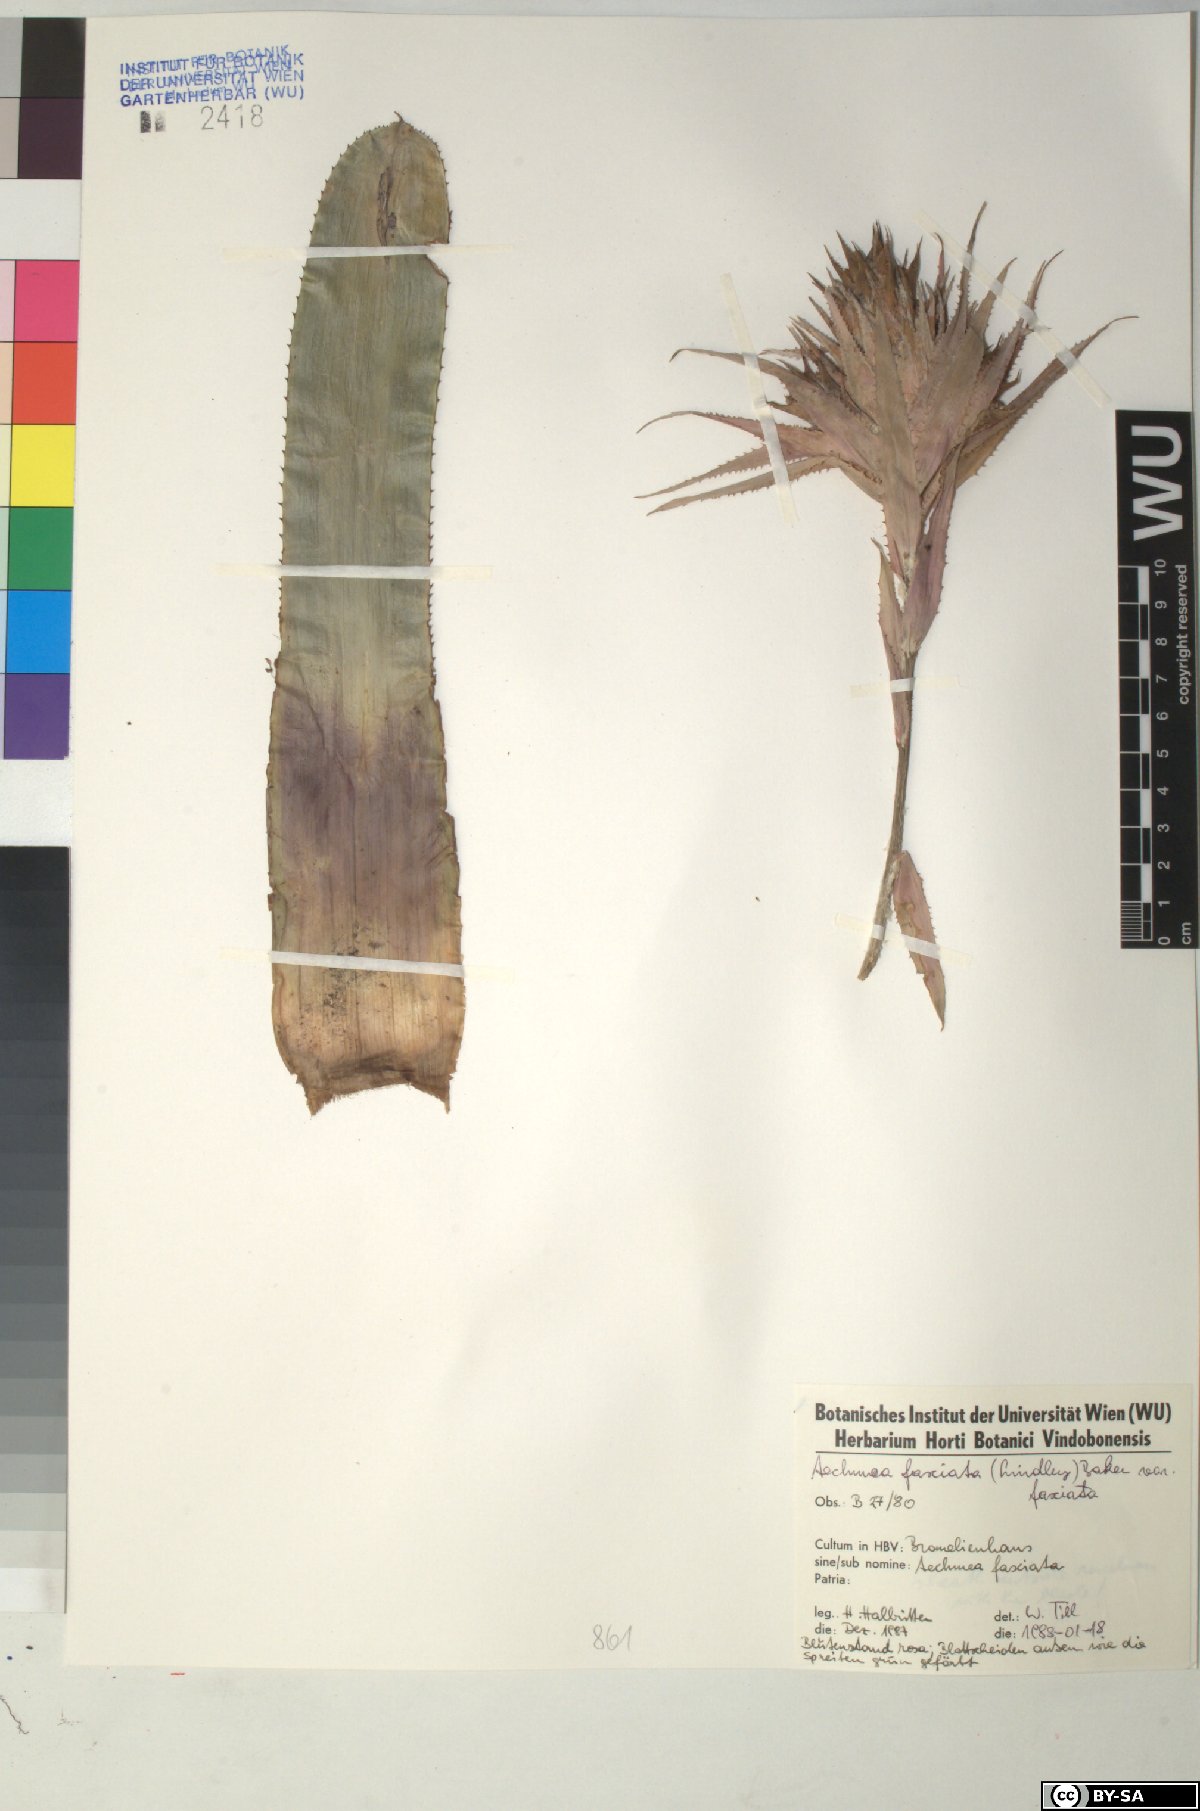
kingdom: Plantae
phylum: Tracheophyta
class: Liliopsida
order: Poales
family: Bromeliaceae
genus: Aechmea
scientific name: Aechmea fasciata
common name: Urnplant
